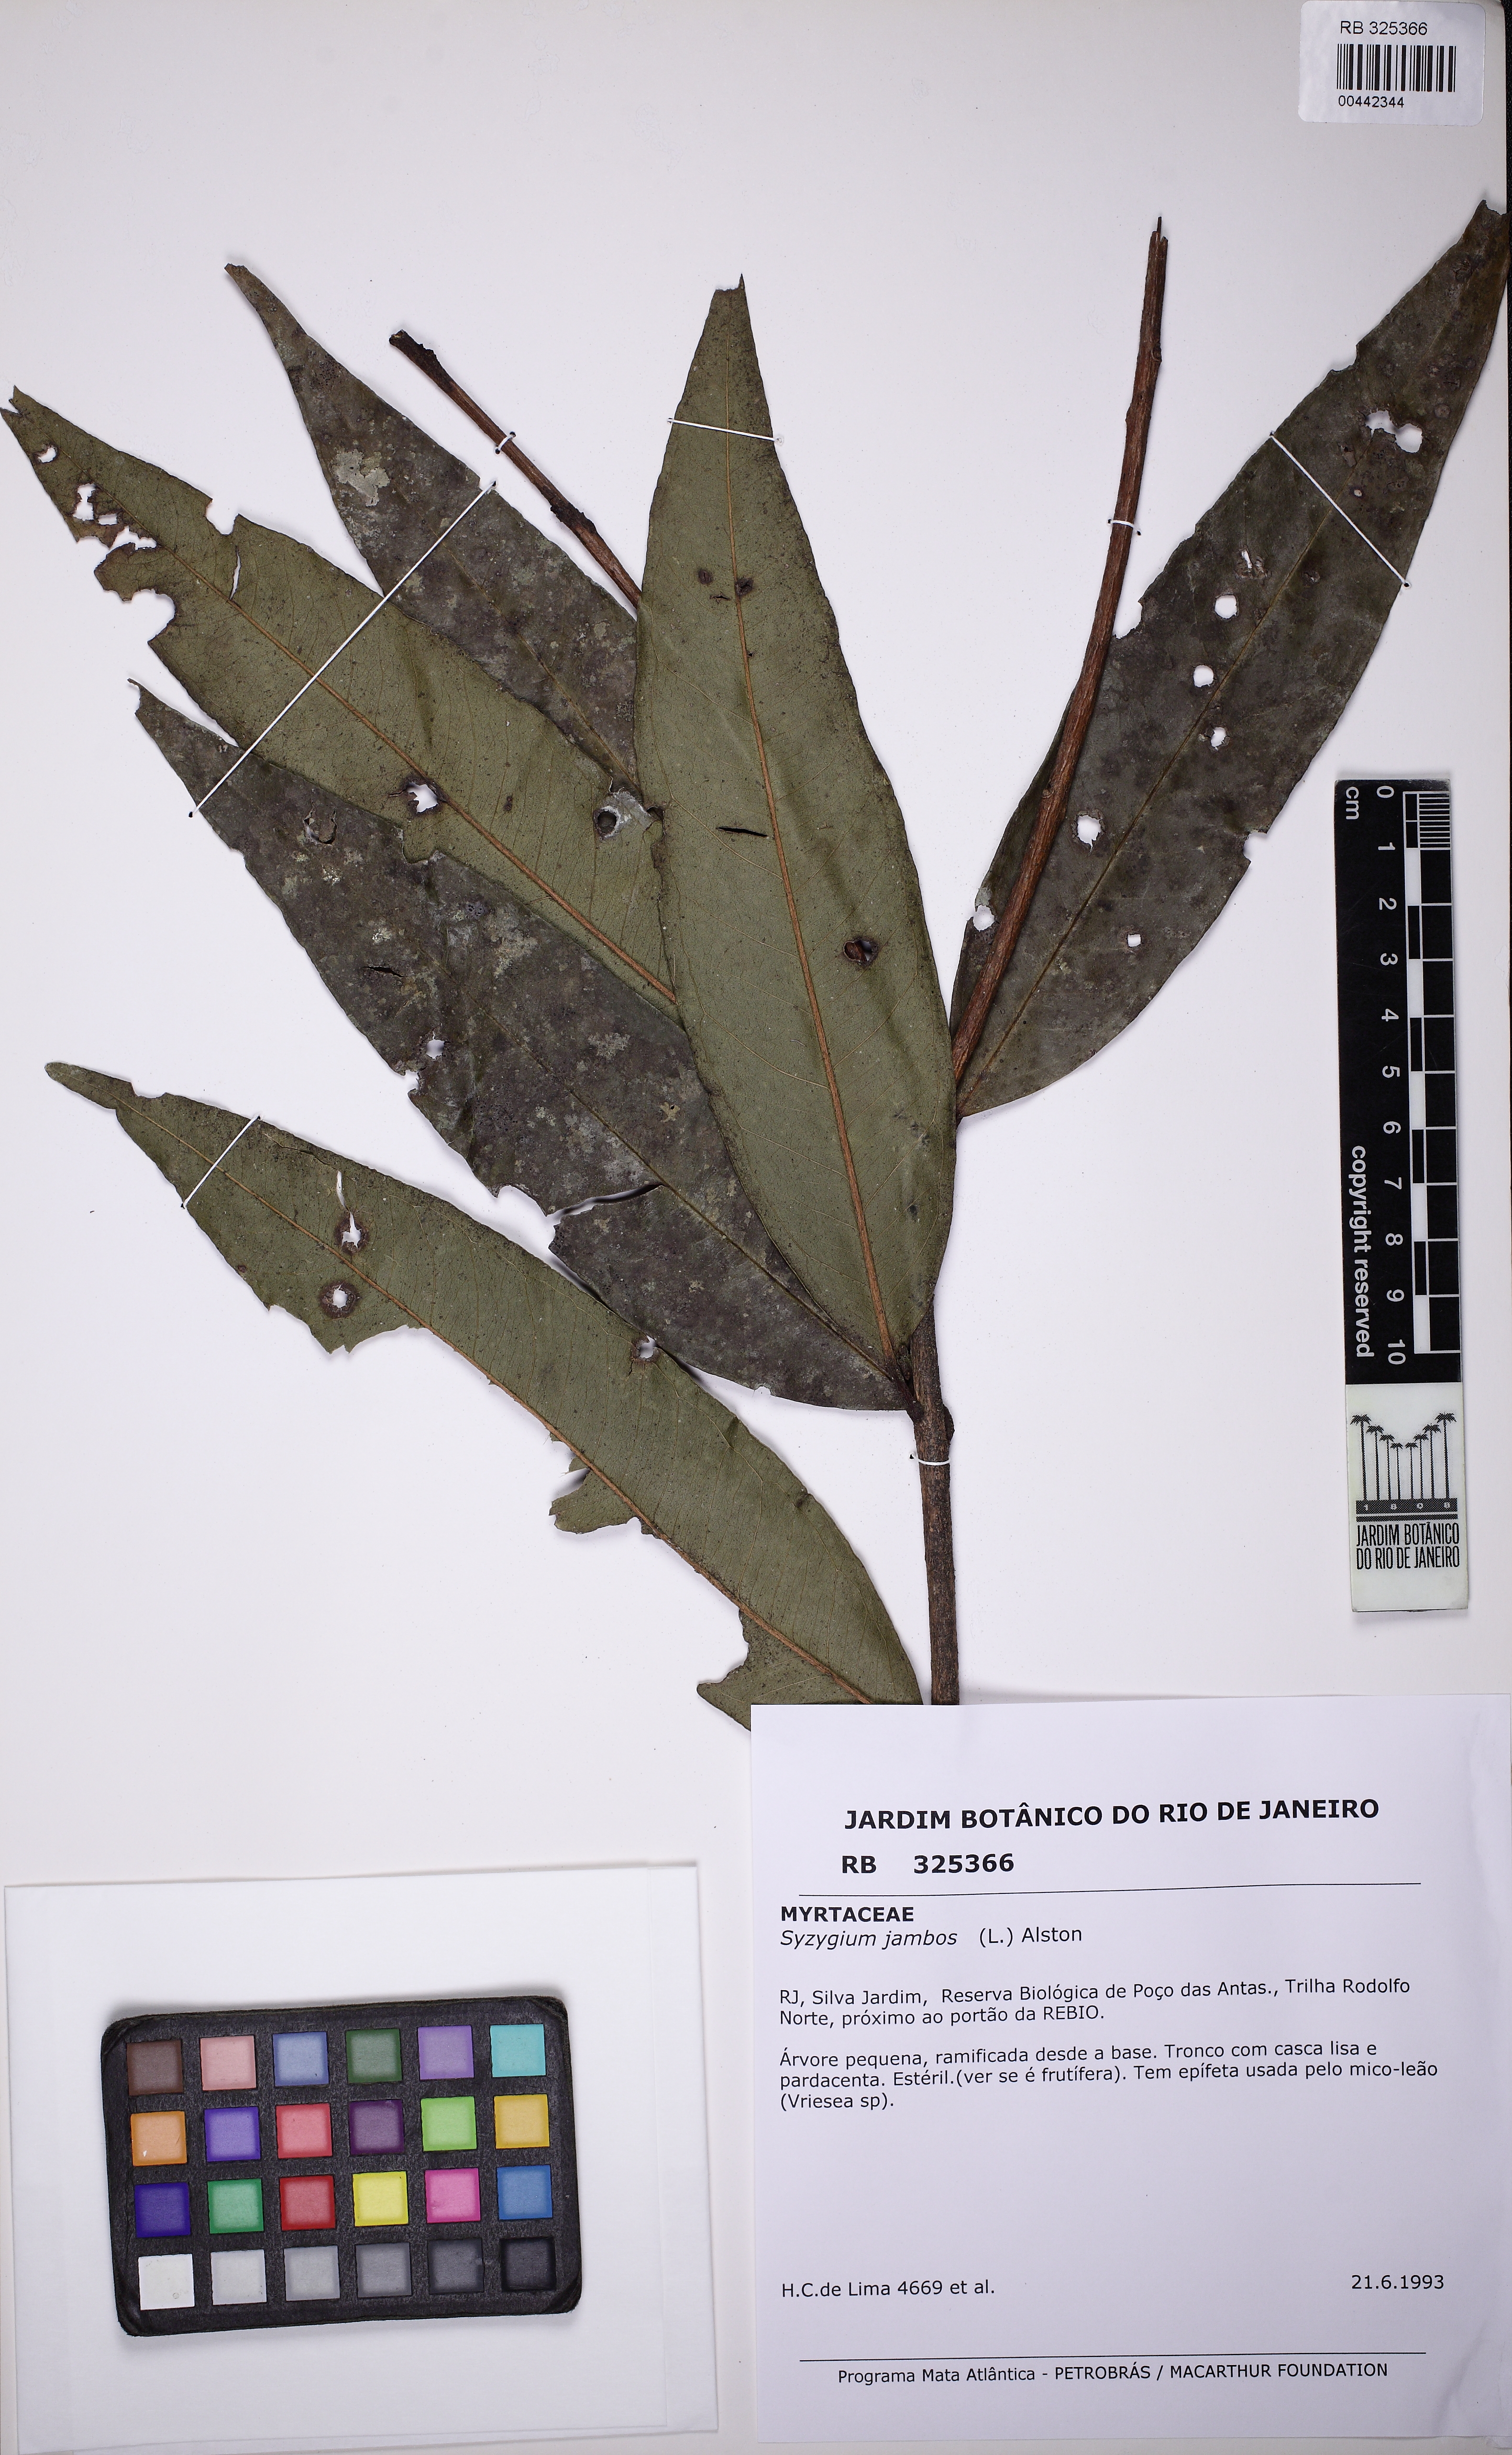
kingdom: Plantae
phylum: Tracheophyta
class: Magnoliopsida
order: Myrtales
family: Myrtaceae
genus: Syzygium
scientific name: Syzygium jambos
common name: Malabar plum
